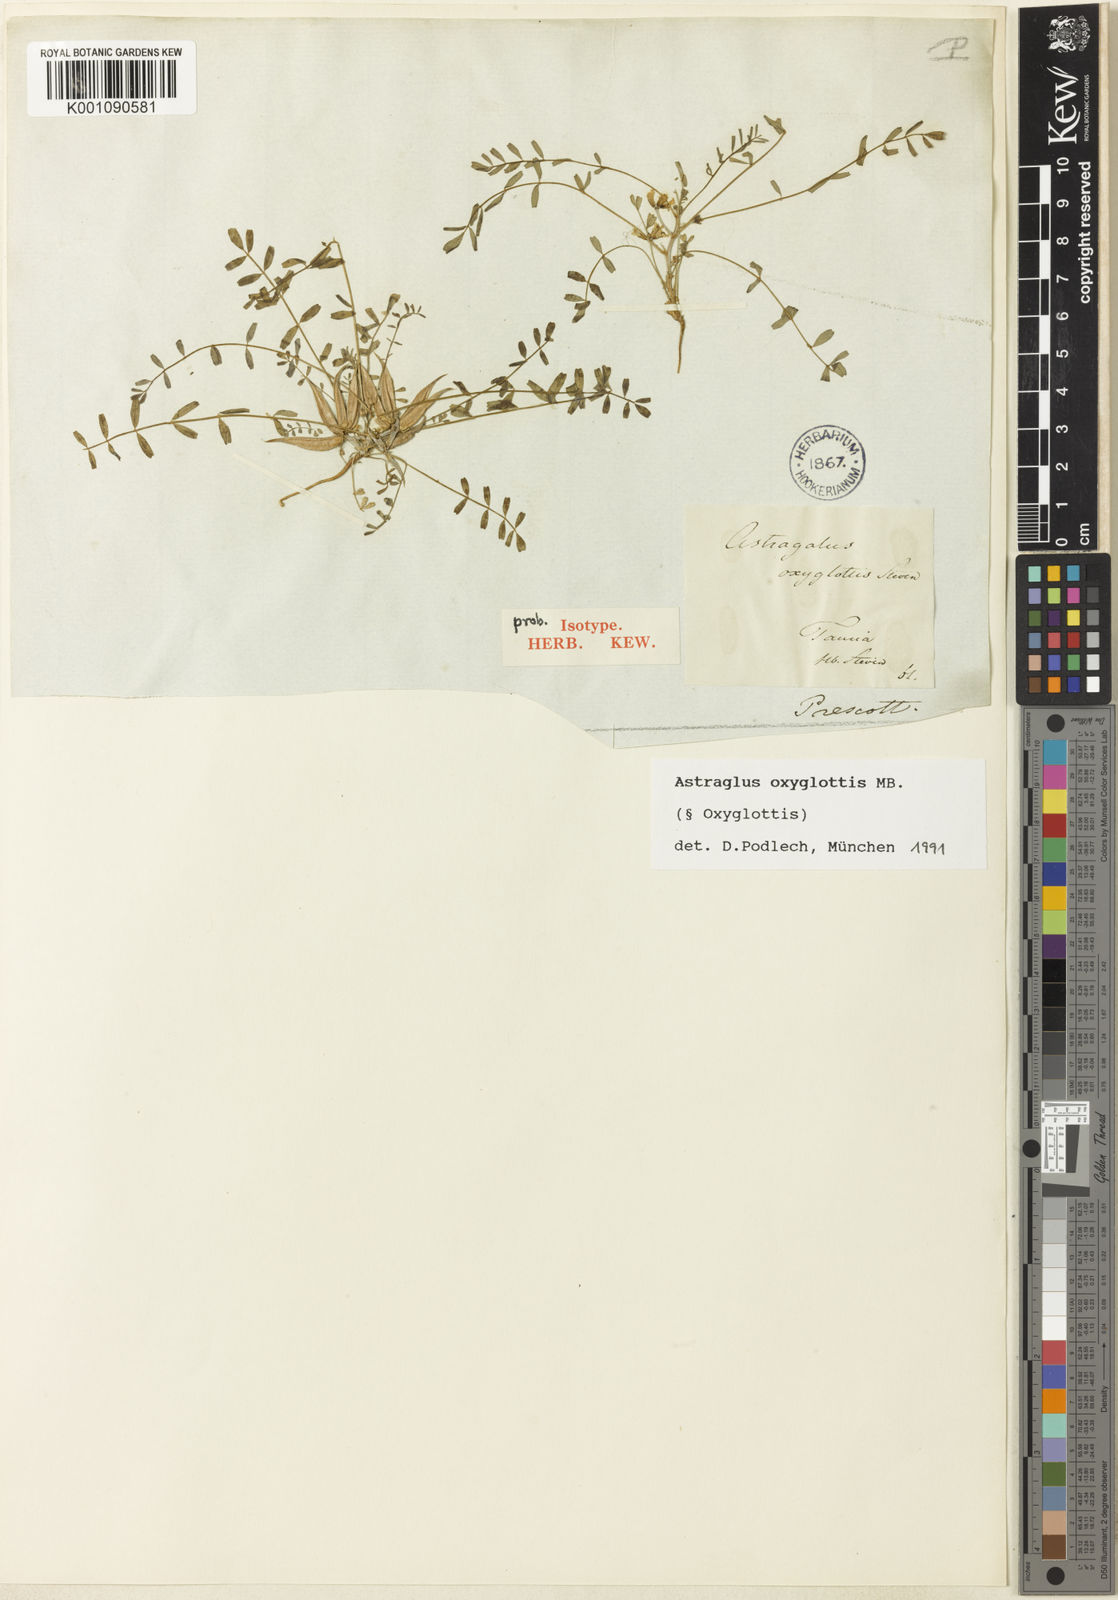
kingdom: Plantae
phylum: Tracheophyta
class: Magnoliopsida
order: Fabales
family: Fabaceae
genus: Astragalus
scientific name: Astragalus
